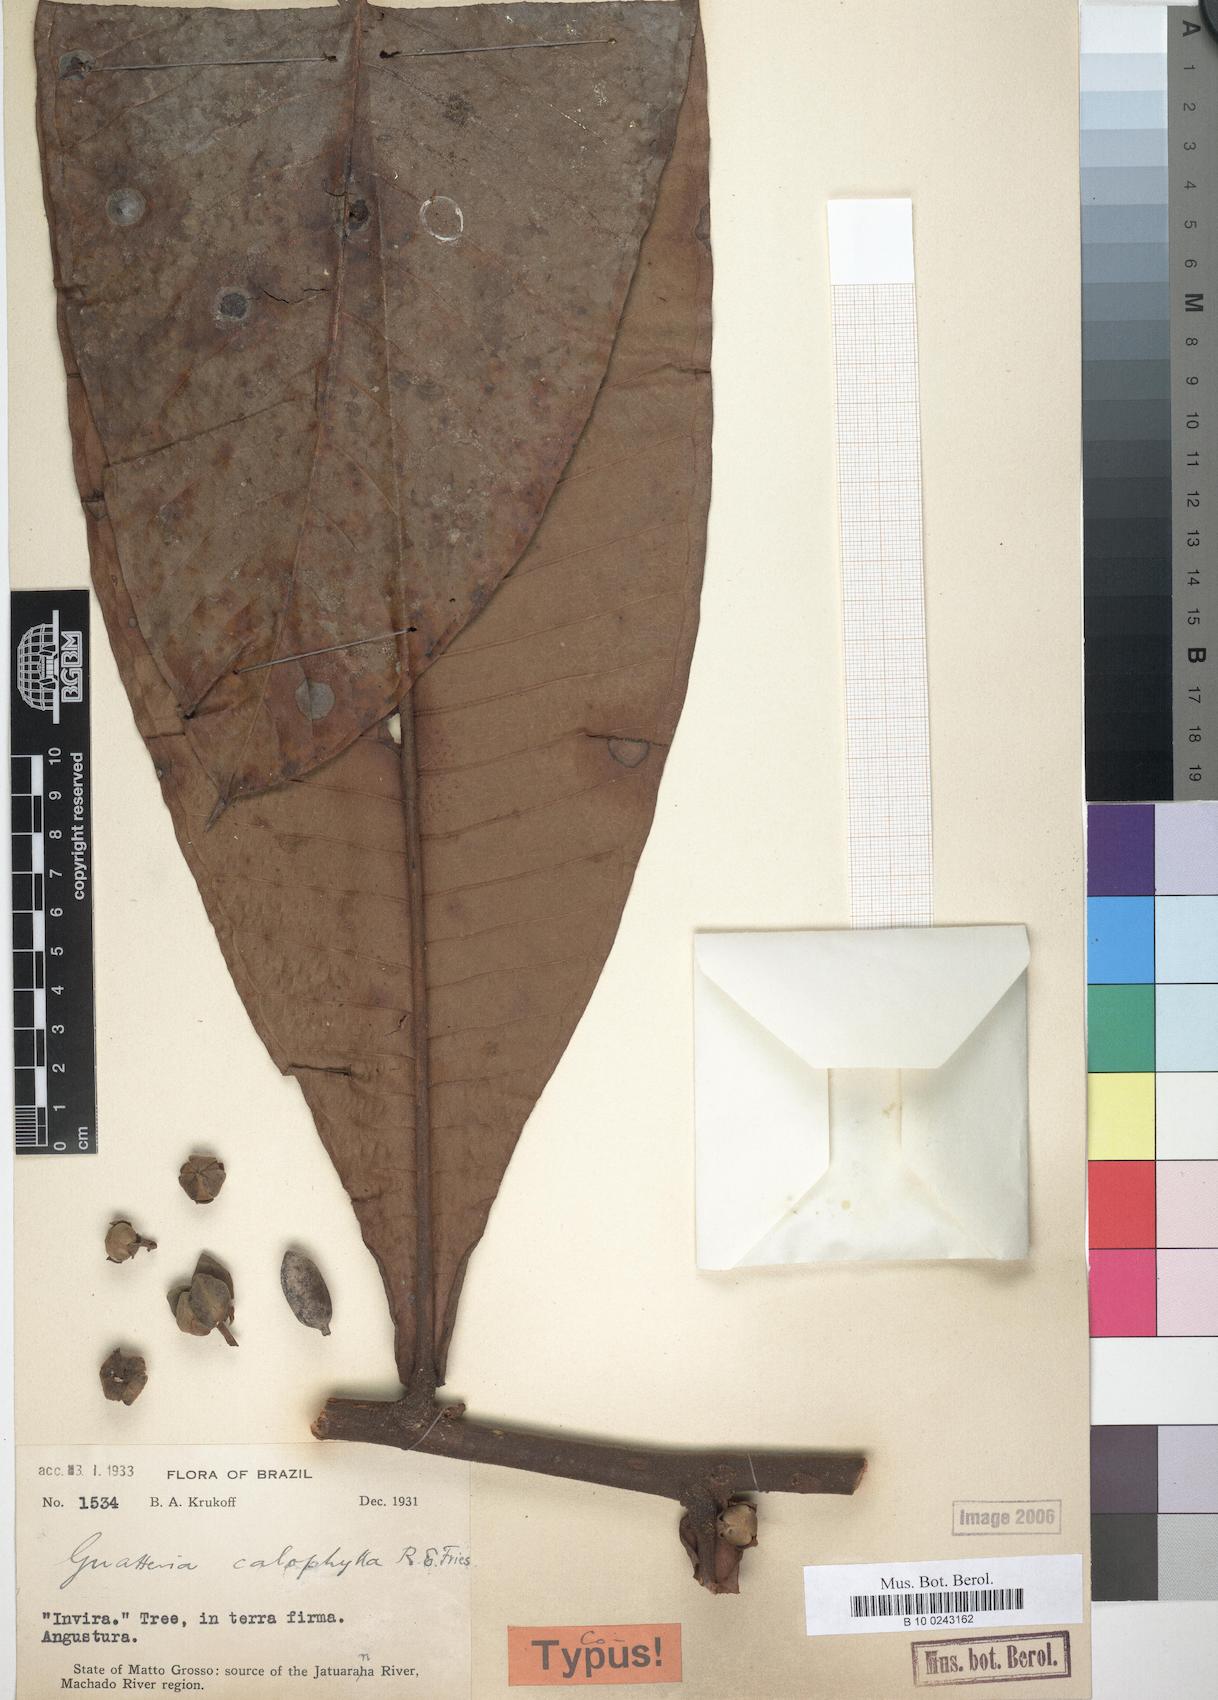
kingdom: Plantae
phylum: Tracheophyta
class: Magnoliopsida
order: Magnoliales
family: Annonaceae
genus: Guatteria
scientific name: Guatteria guianensis
